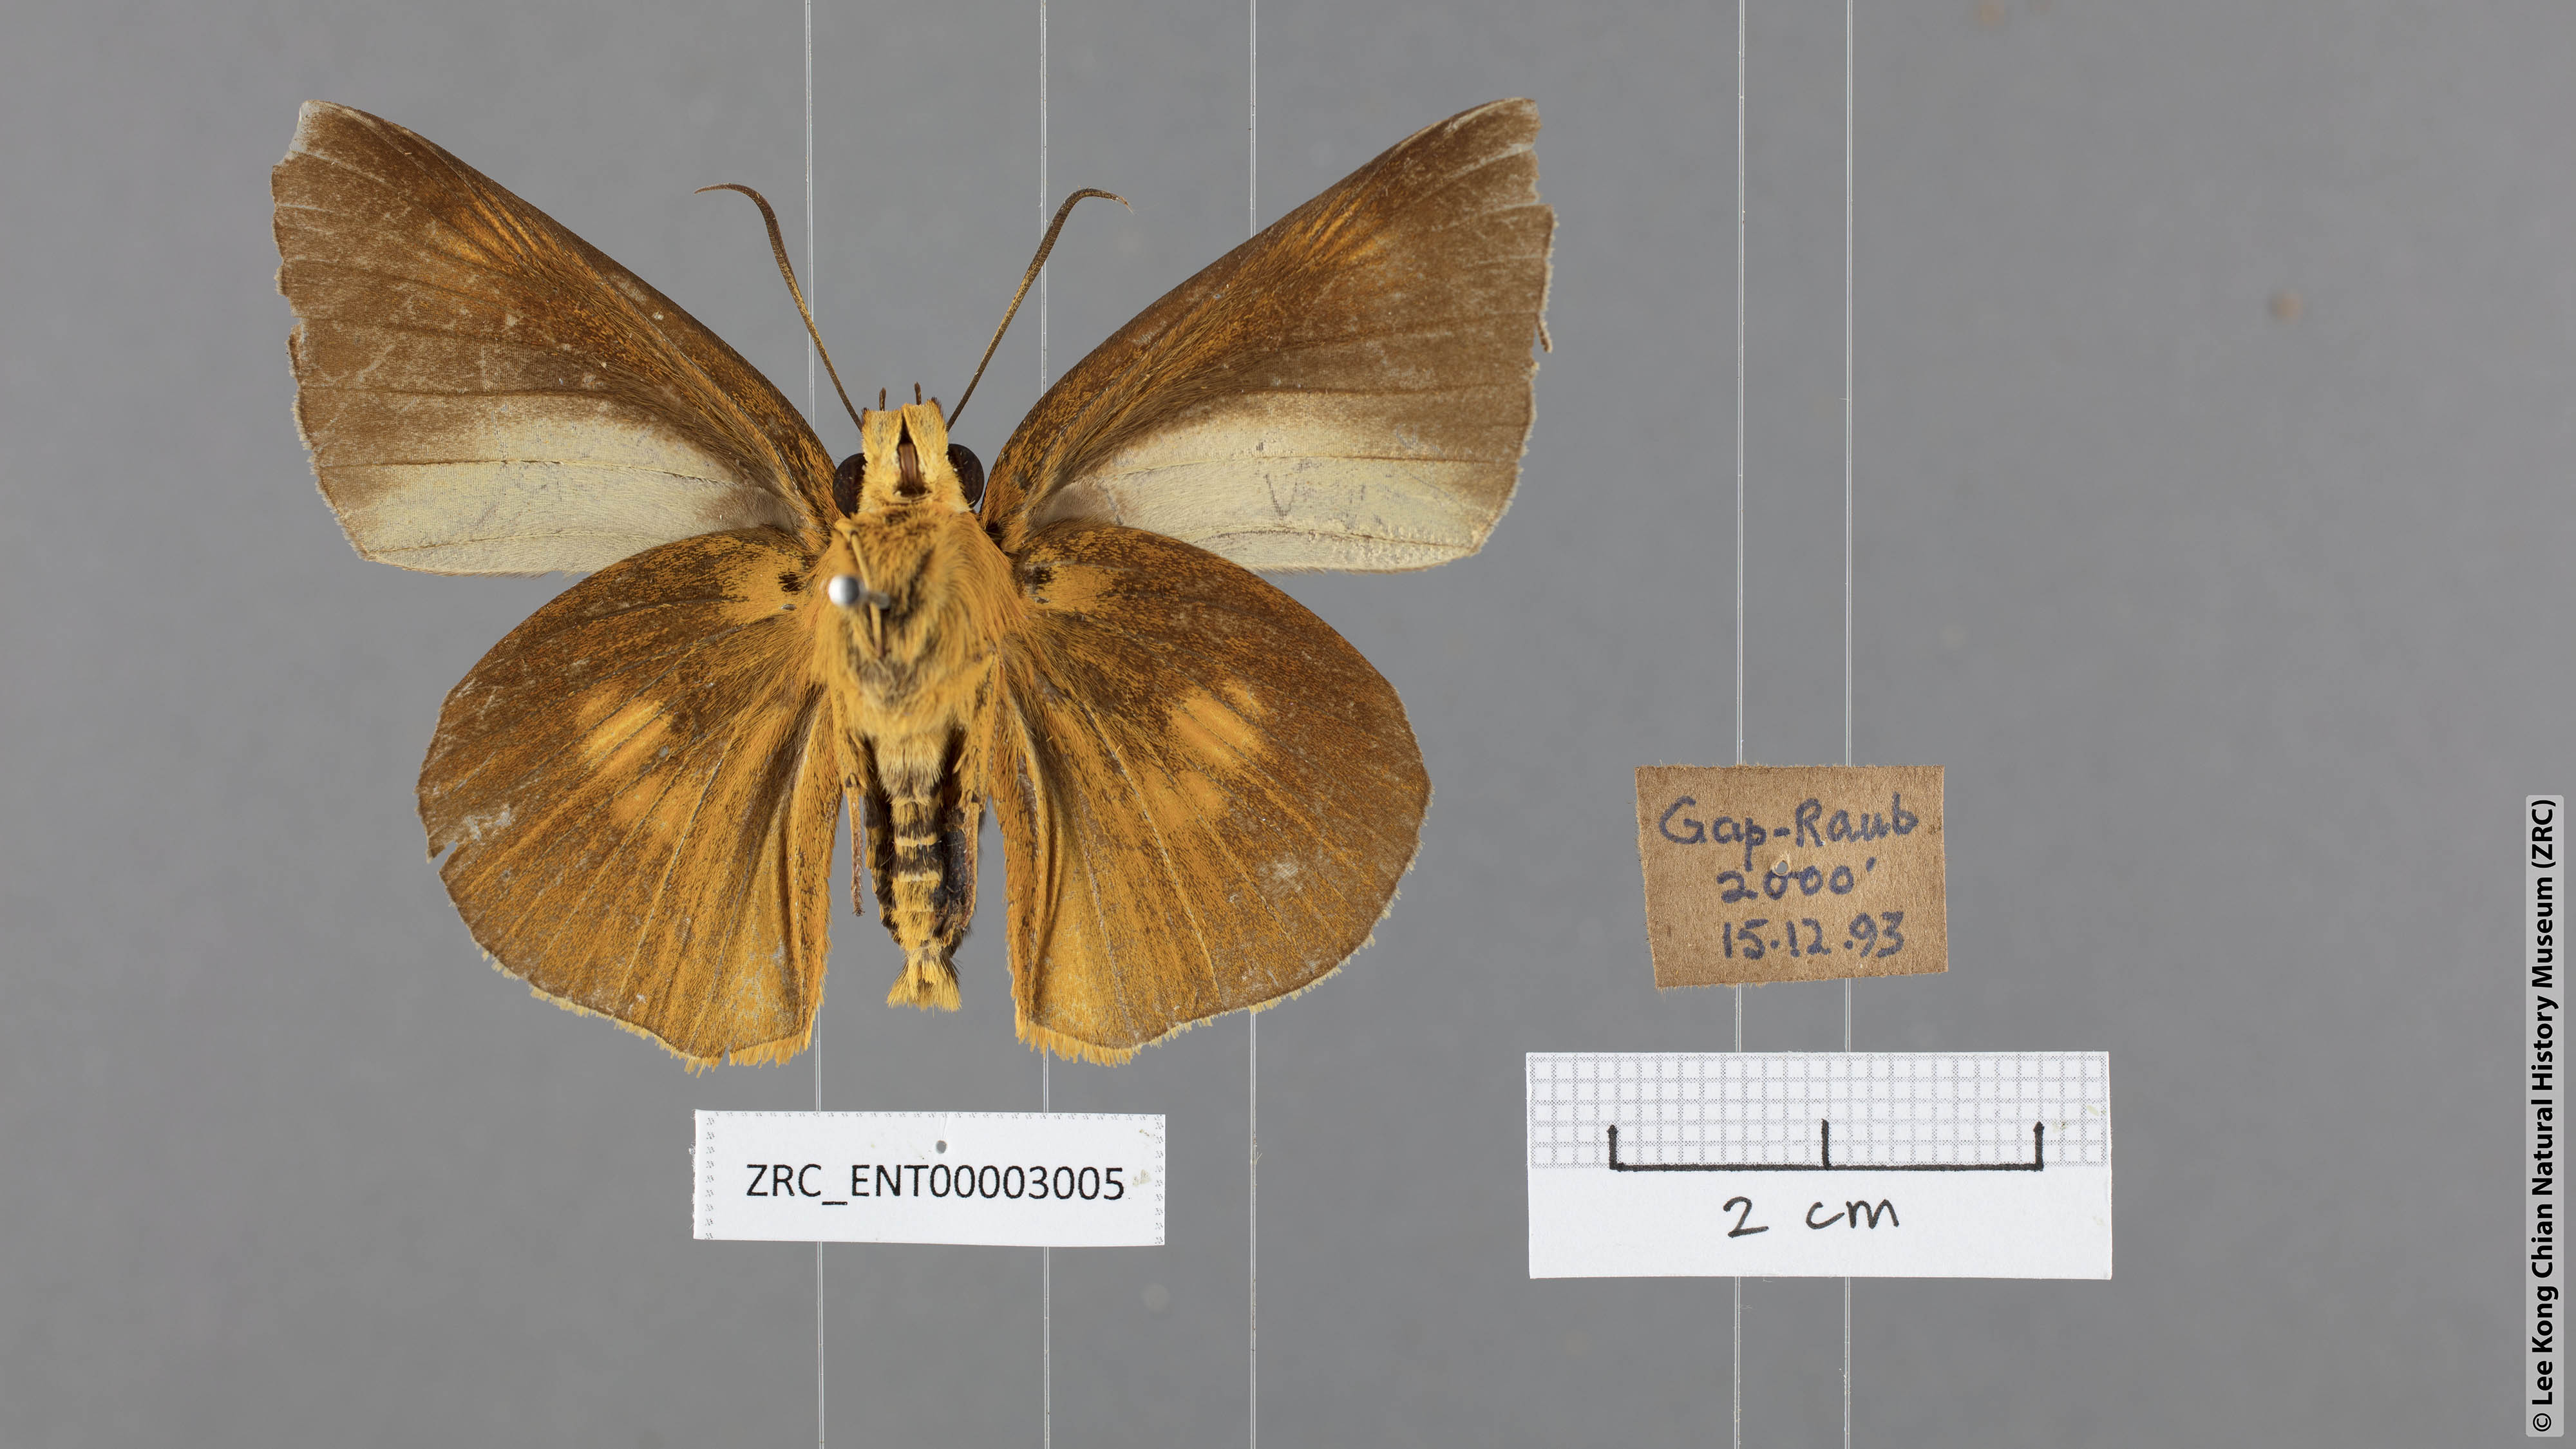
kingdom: Animalia
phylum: Arthropoda
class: Insecta
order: Lepidoptera
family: Hesperiidae
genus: Bibasis
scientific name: Bibasis etelka
